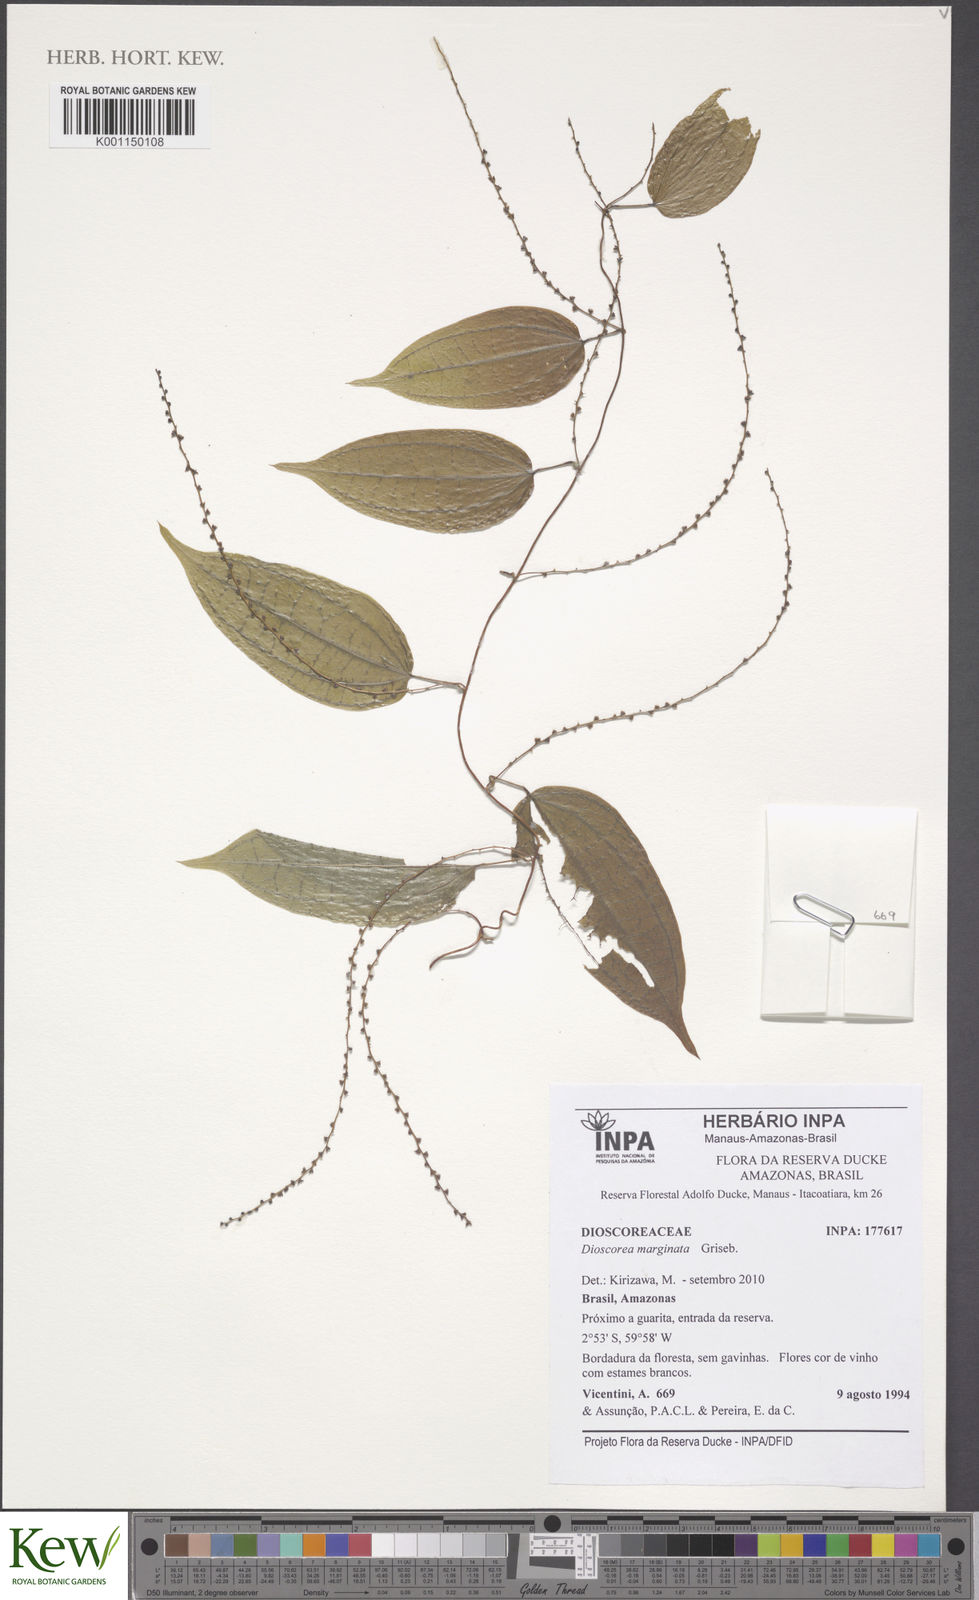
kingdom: Plantae
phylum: Tracheophyta
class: Liliopsida
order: Dioscoreales
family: Dioscoreaceae
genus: Dioscorea
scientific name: Dioscorea melastomatifolia
